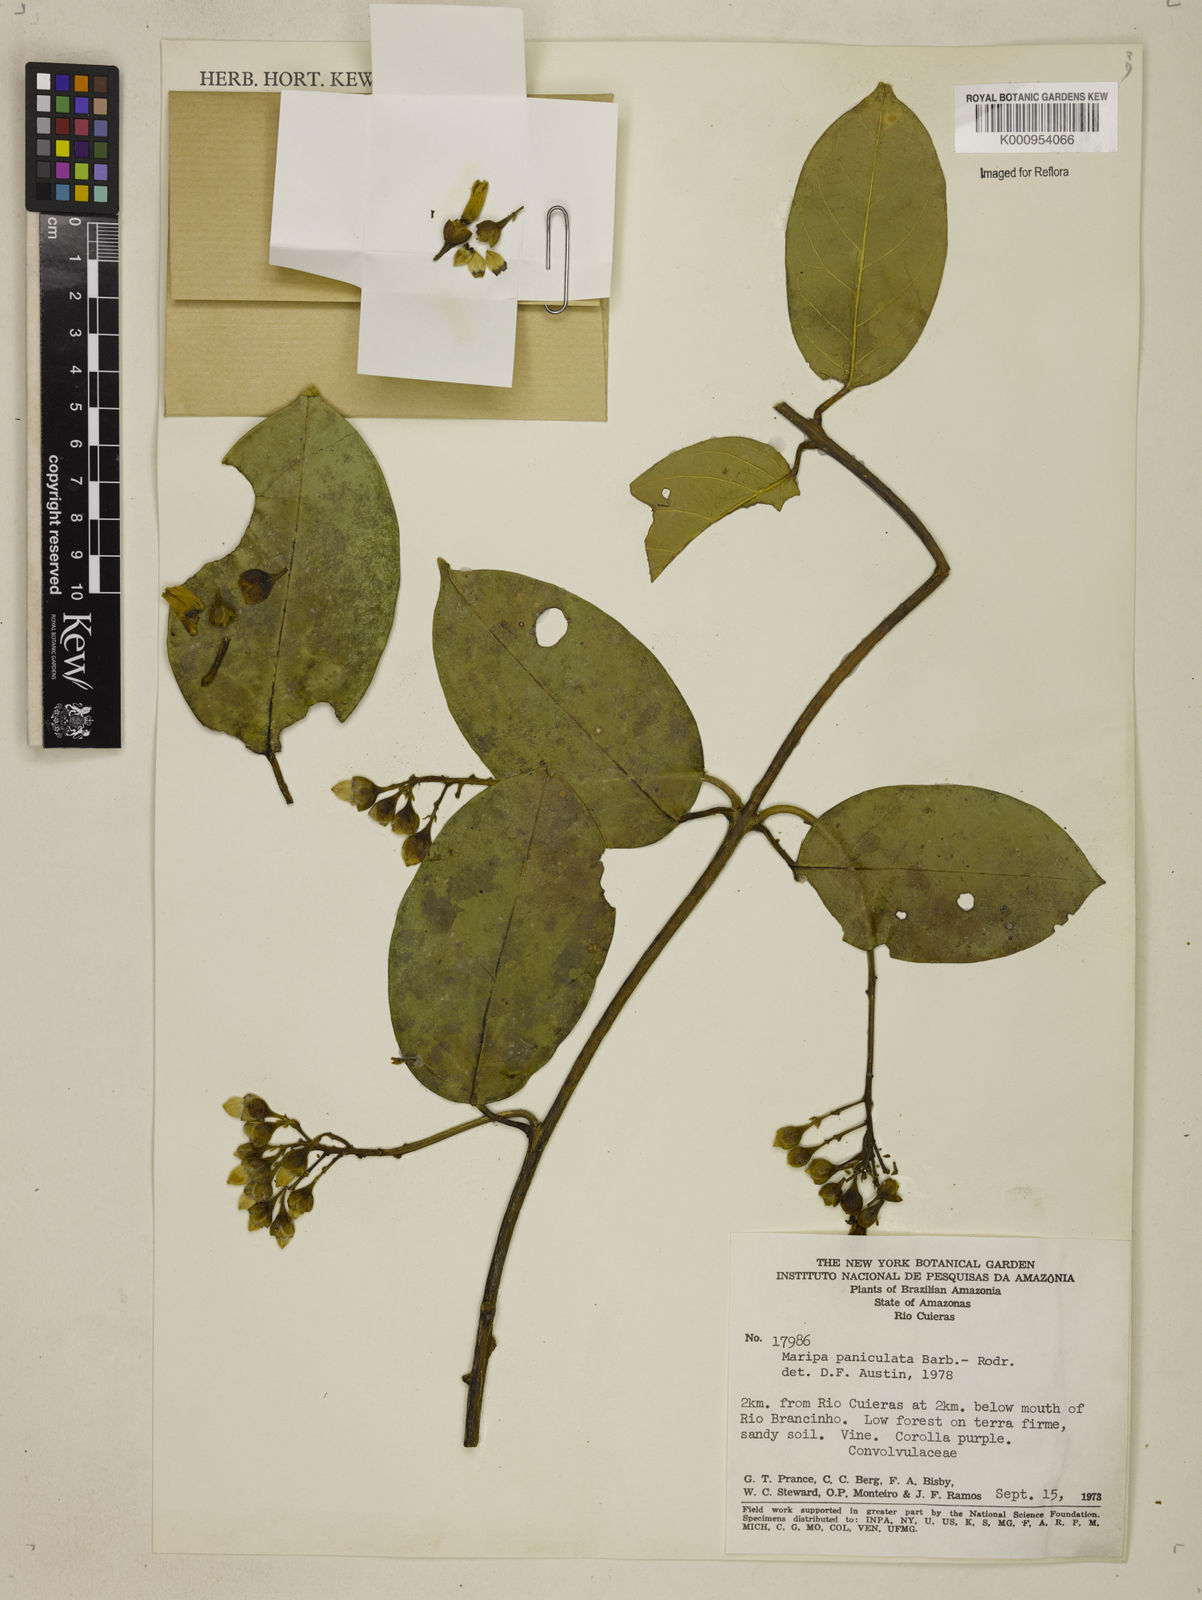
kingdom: Plantae
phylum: Tracheophyta
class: Magnoliopsida
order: Solanales
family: Convolvulaceae
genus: Maripa
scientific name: Maripa paniculata
